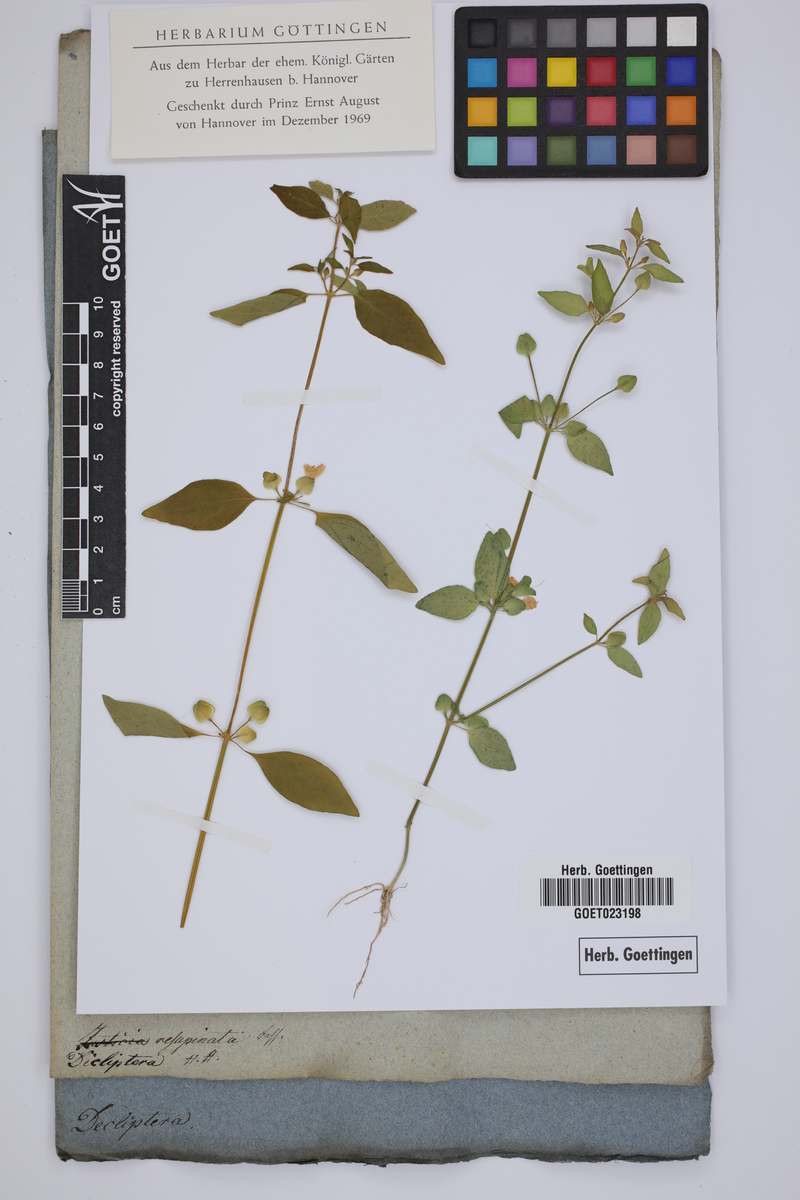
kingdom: Plantae
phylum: Tracheophyta
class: Magnoliopsida
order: Lamiales
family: Acanthaceae
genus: Dicliptera
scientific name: Dicliptera resupinata
